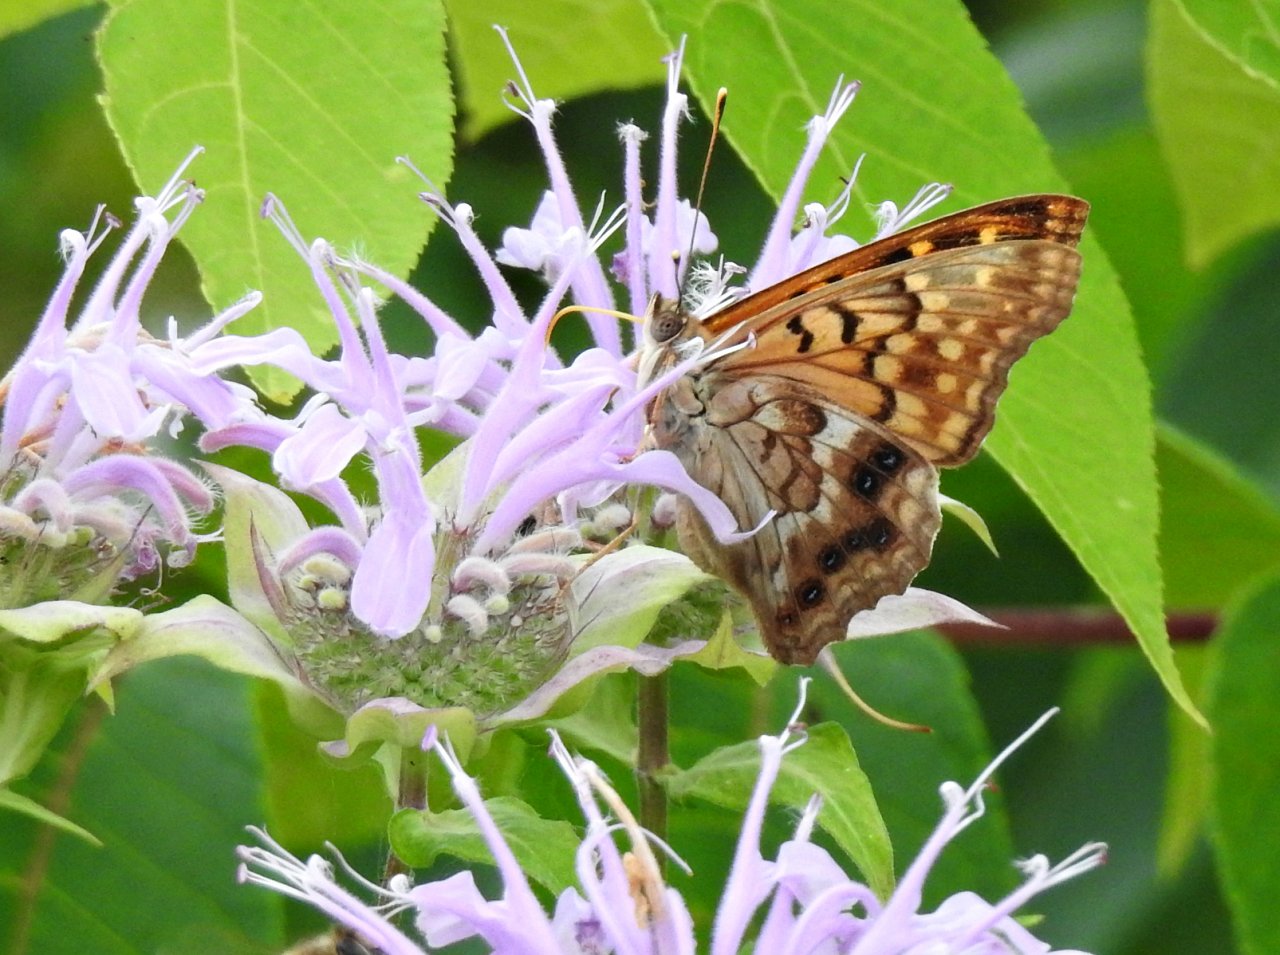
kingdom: Animalia
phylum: Arthropoda
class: Insecta
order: Lepidoptera
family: Nymphalidae
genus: Asterocampa
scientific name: Asterocampa clyton
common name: Tawny Emperor
